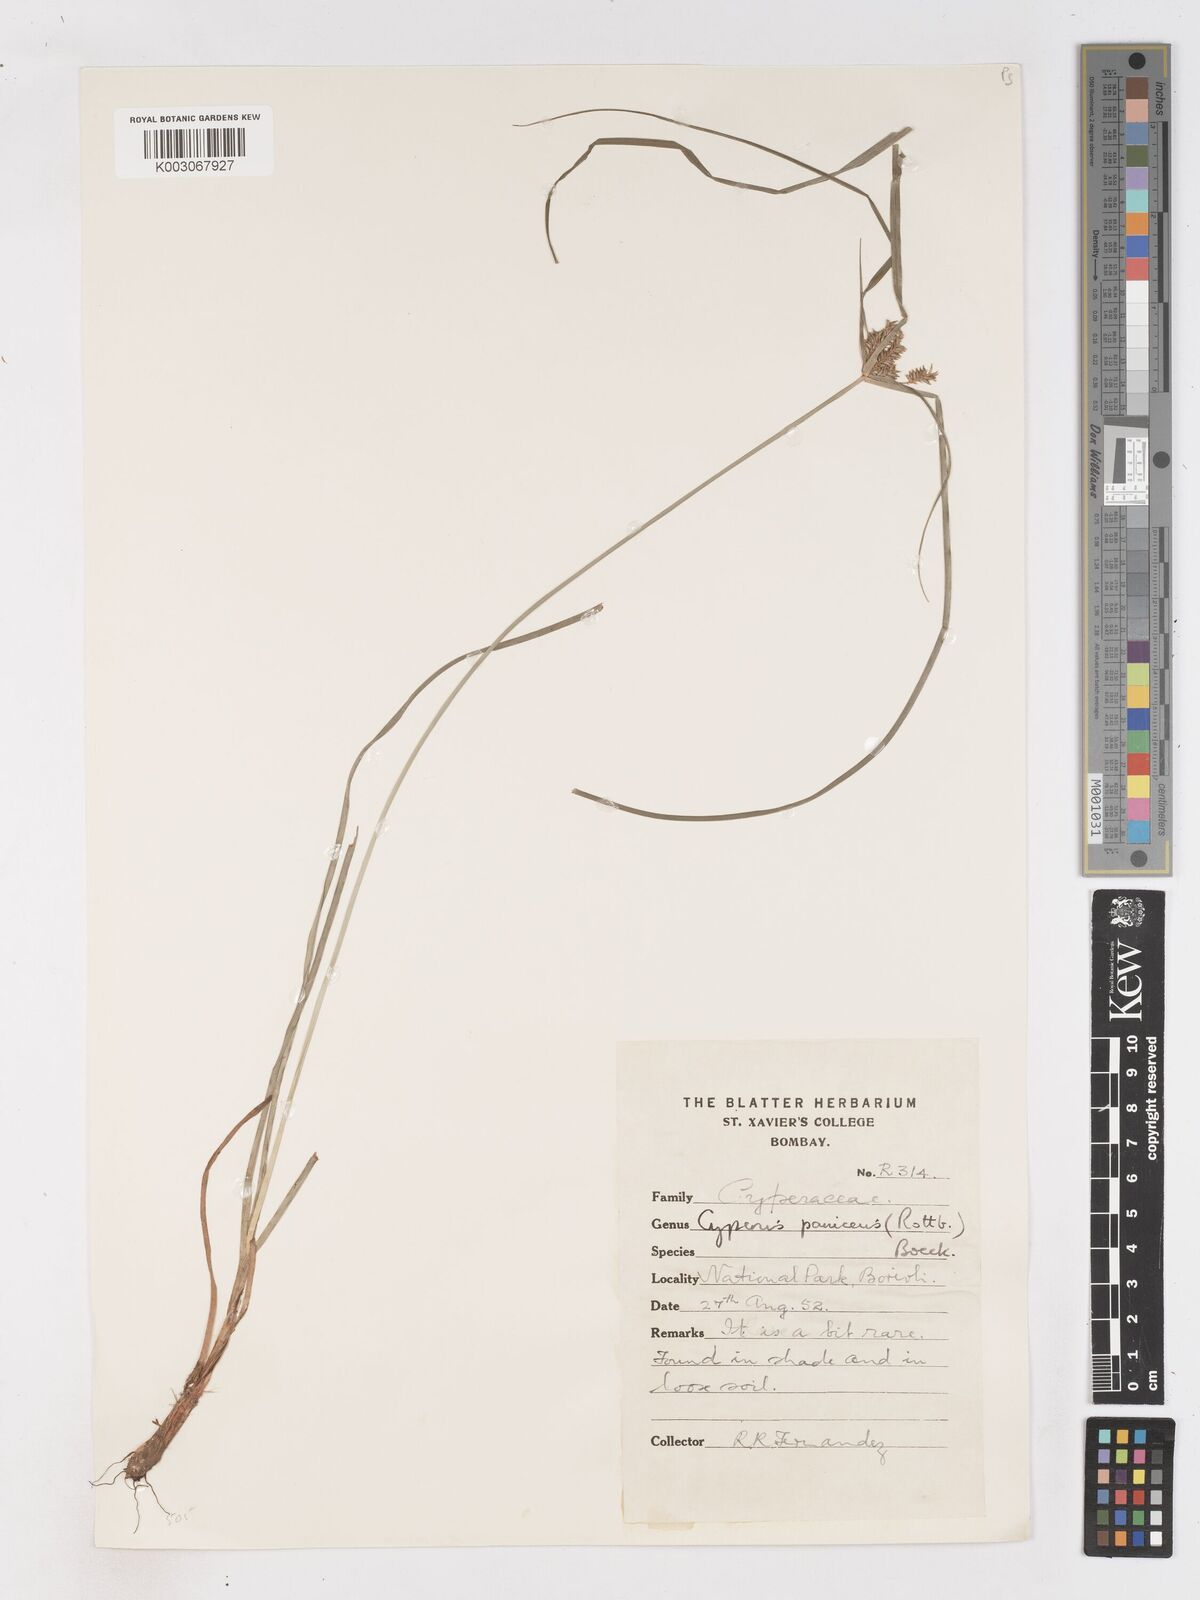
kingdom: Plantae
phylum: Tracheophyta
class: Liliopsida
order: Poales
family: Cyperaceae
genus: Cyperus
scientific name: Cyperus paniceus
